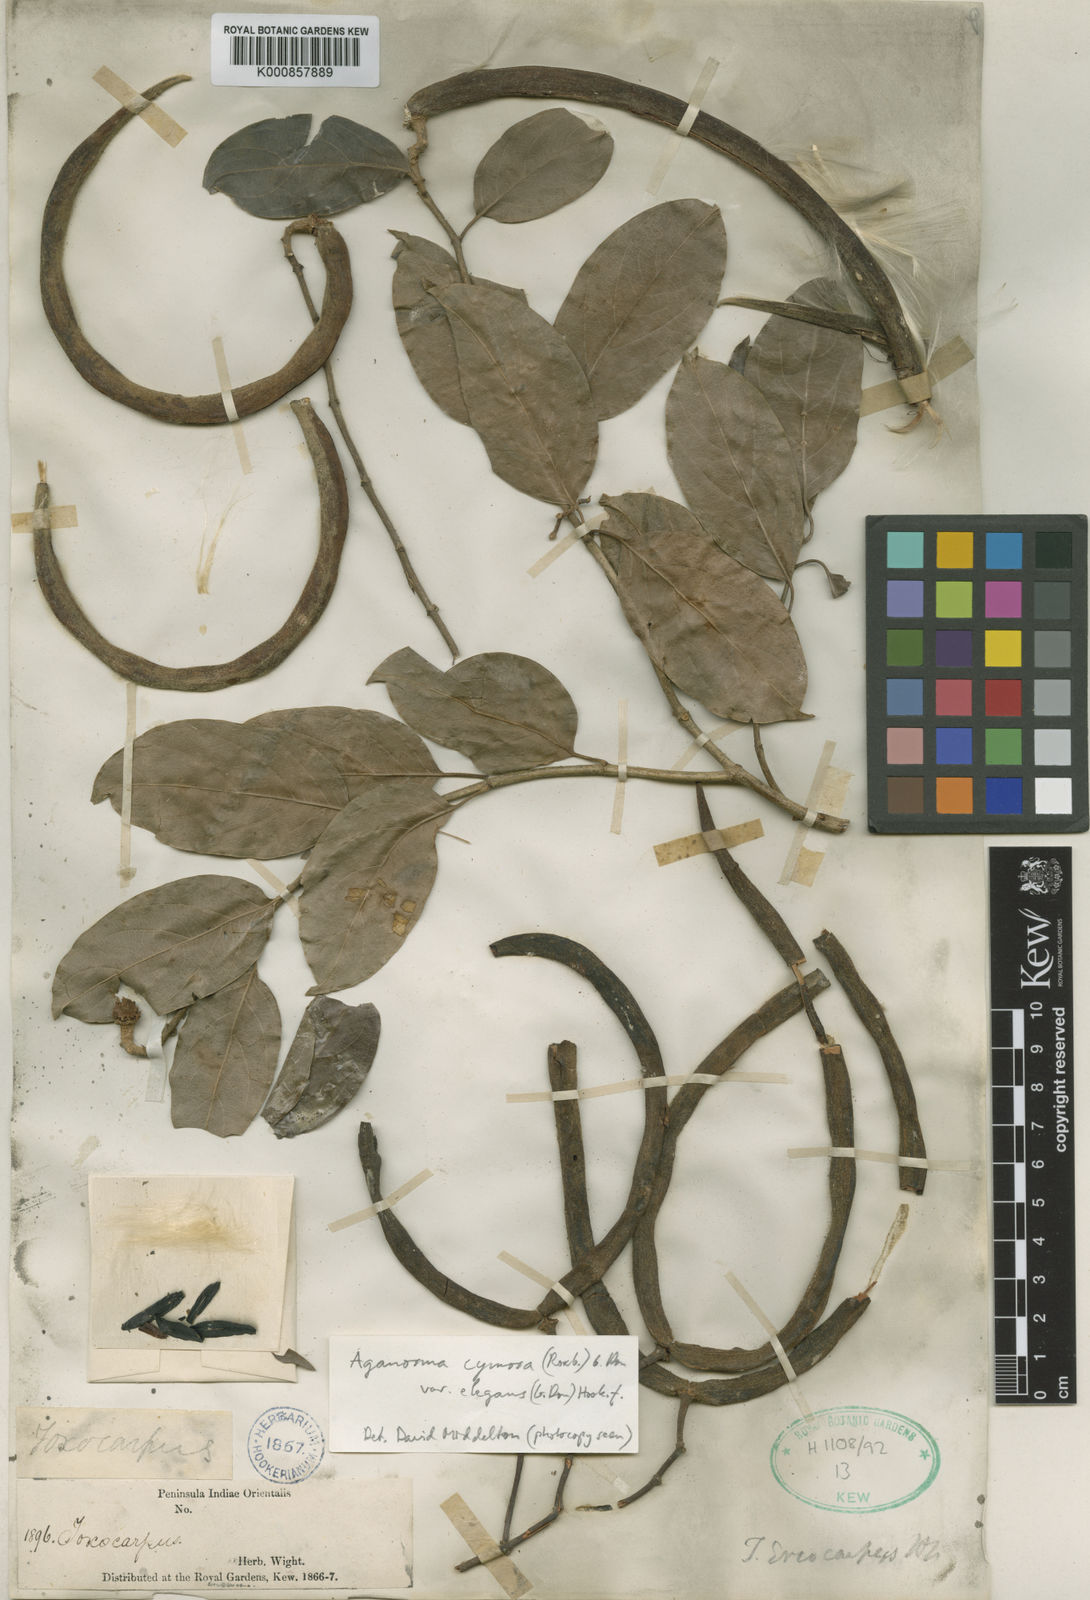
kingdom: Plantae
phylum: Tracheophyta
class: Magnoliopsida
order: Gentianales
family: Apocynaceae
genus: Aganosma
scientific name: Aganosma cymosa
